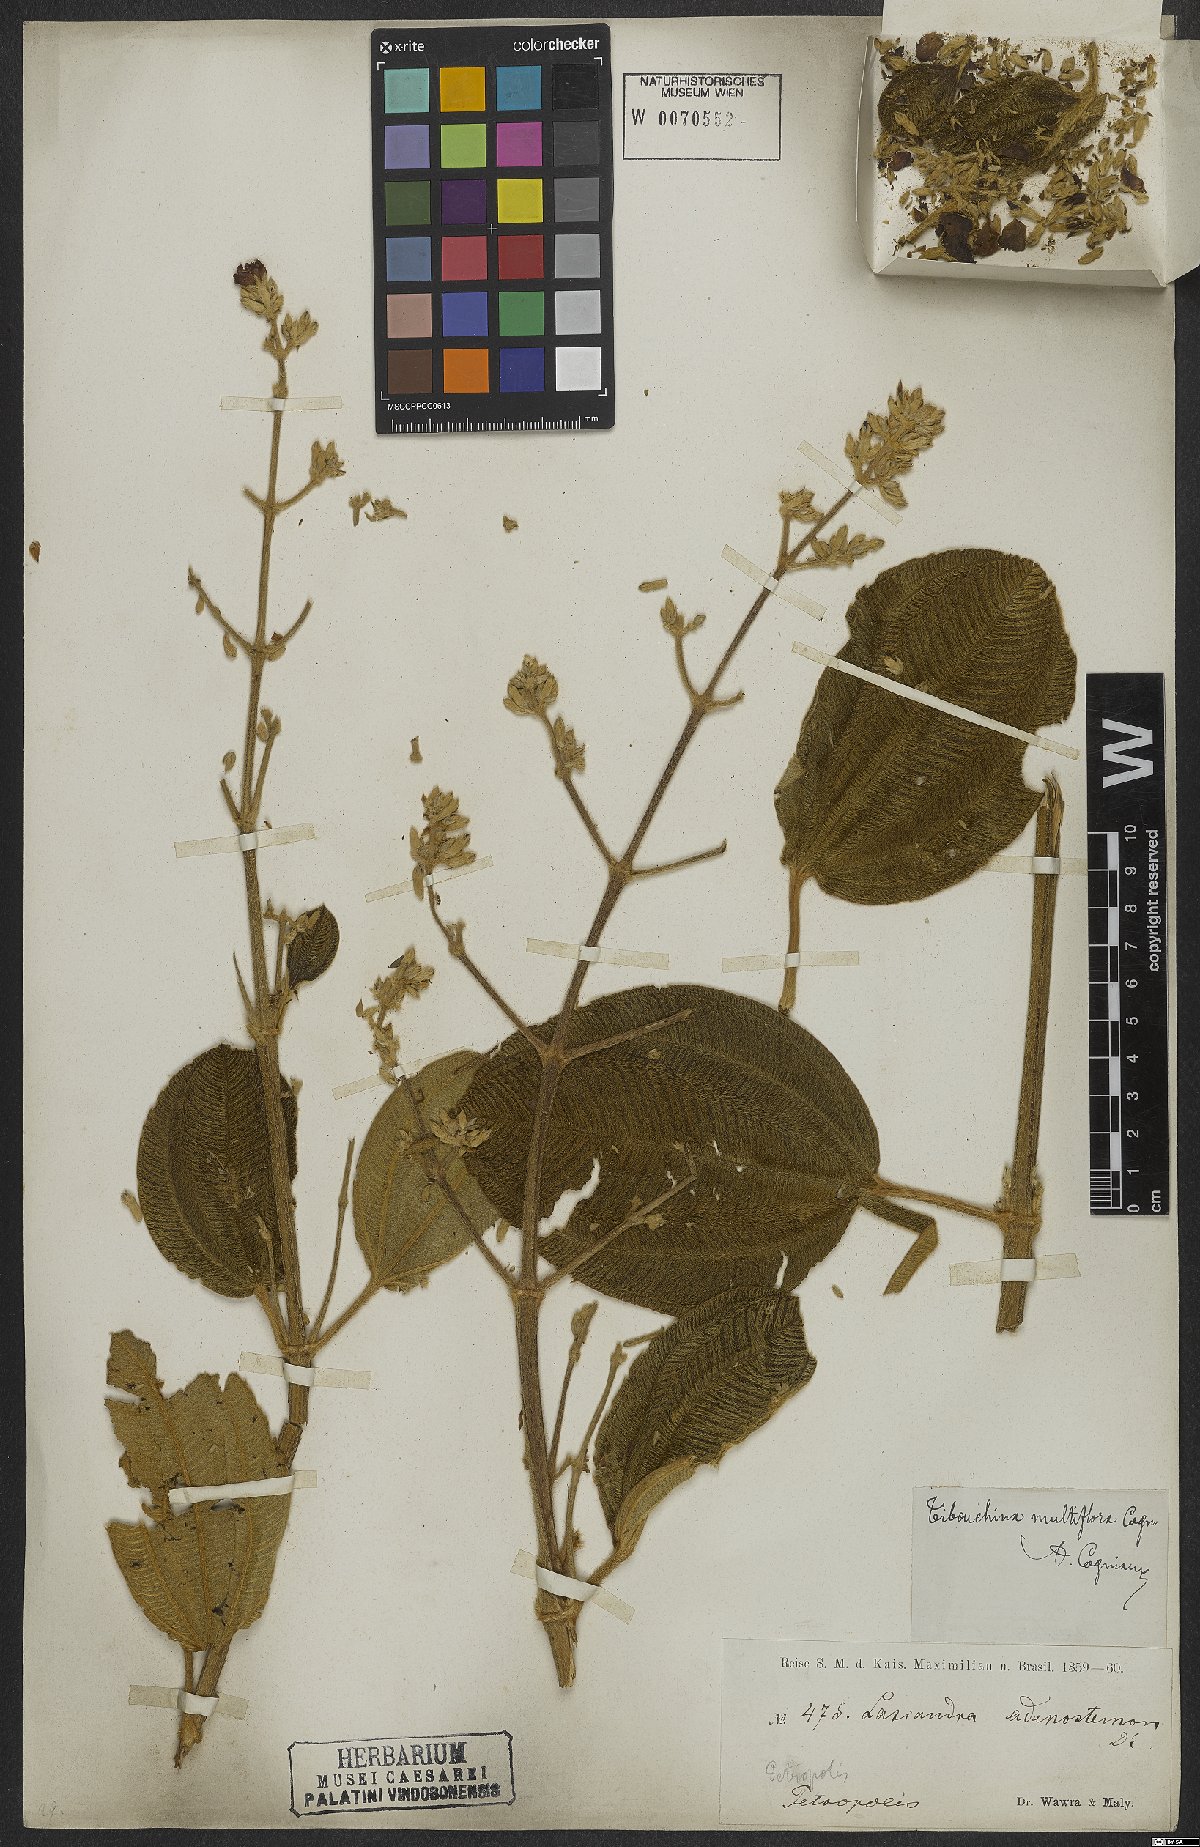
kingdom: Plantae
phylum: Tracheophyta
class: Magnoliopsida
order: Myrtales
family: Melastomataceae
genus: Pleroma
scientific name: Pleroma heteromallum
